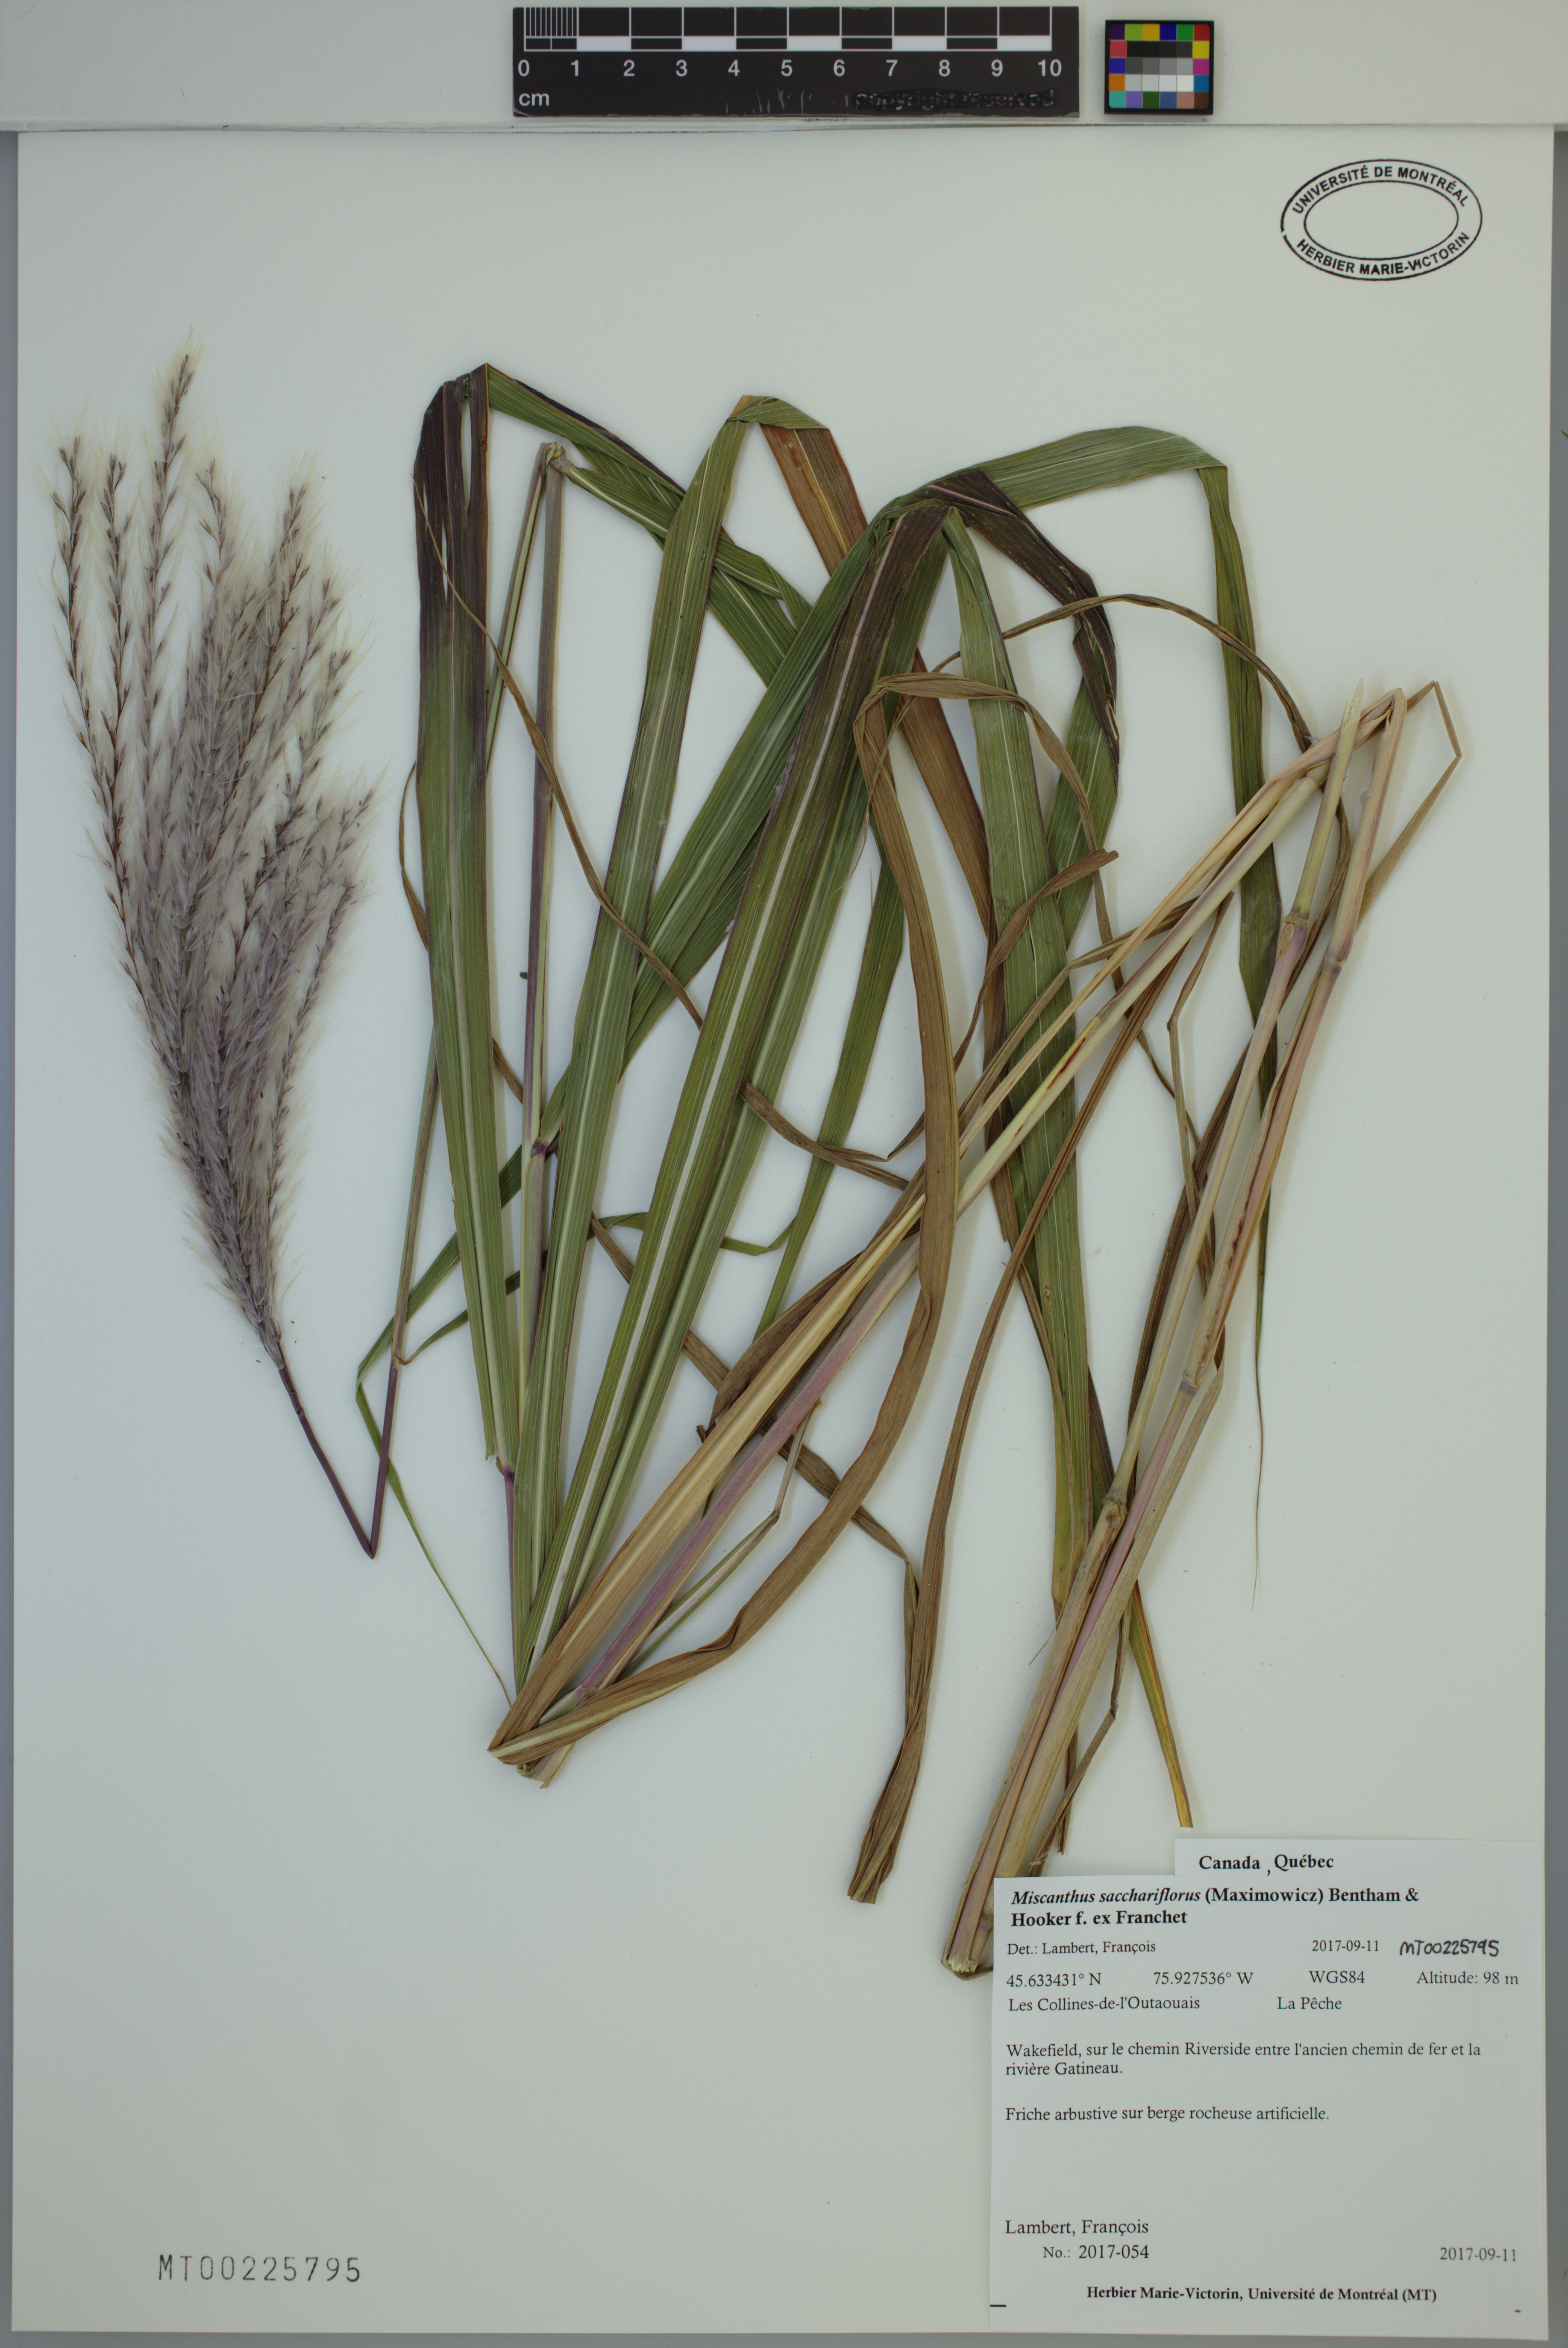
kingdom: Plantae
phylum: Tracheophyta
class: Liliopsida
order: Poales
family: Poaceae
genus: Miscanthus
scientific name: Miscanthus sacchariflorus
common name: Amur silver grass
